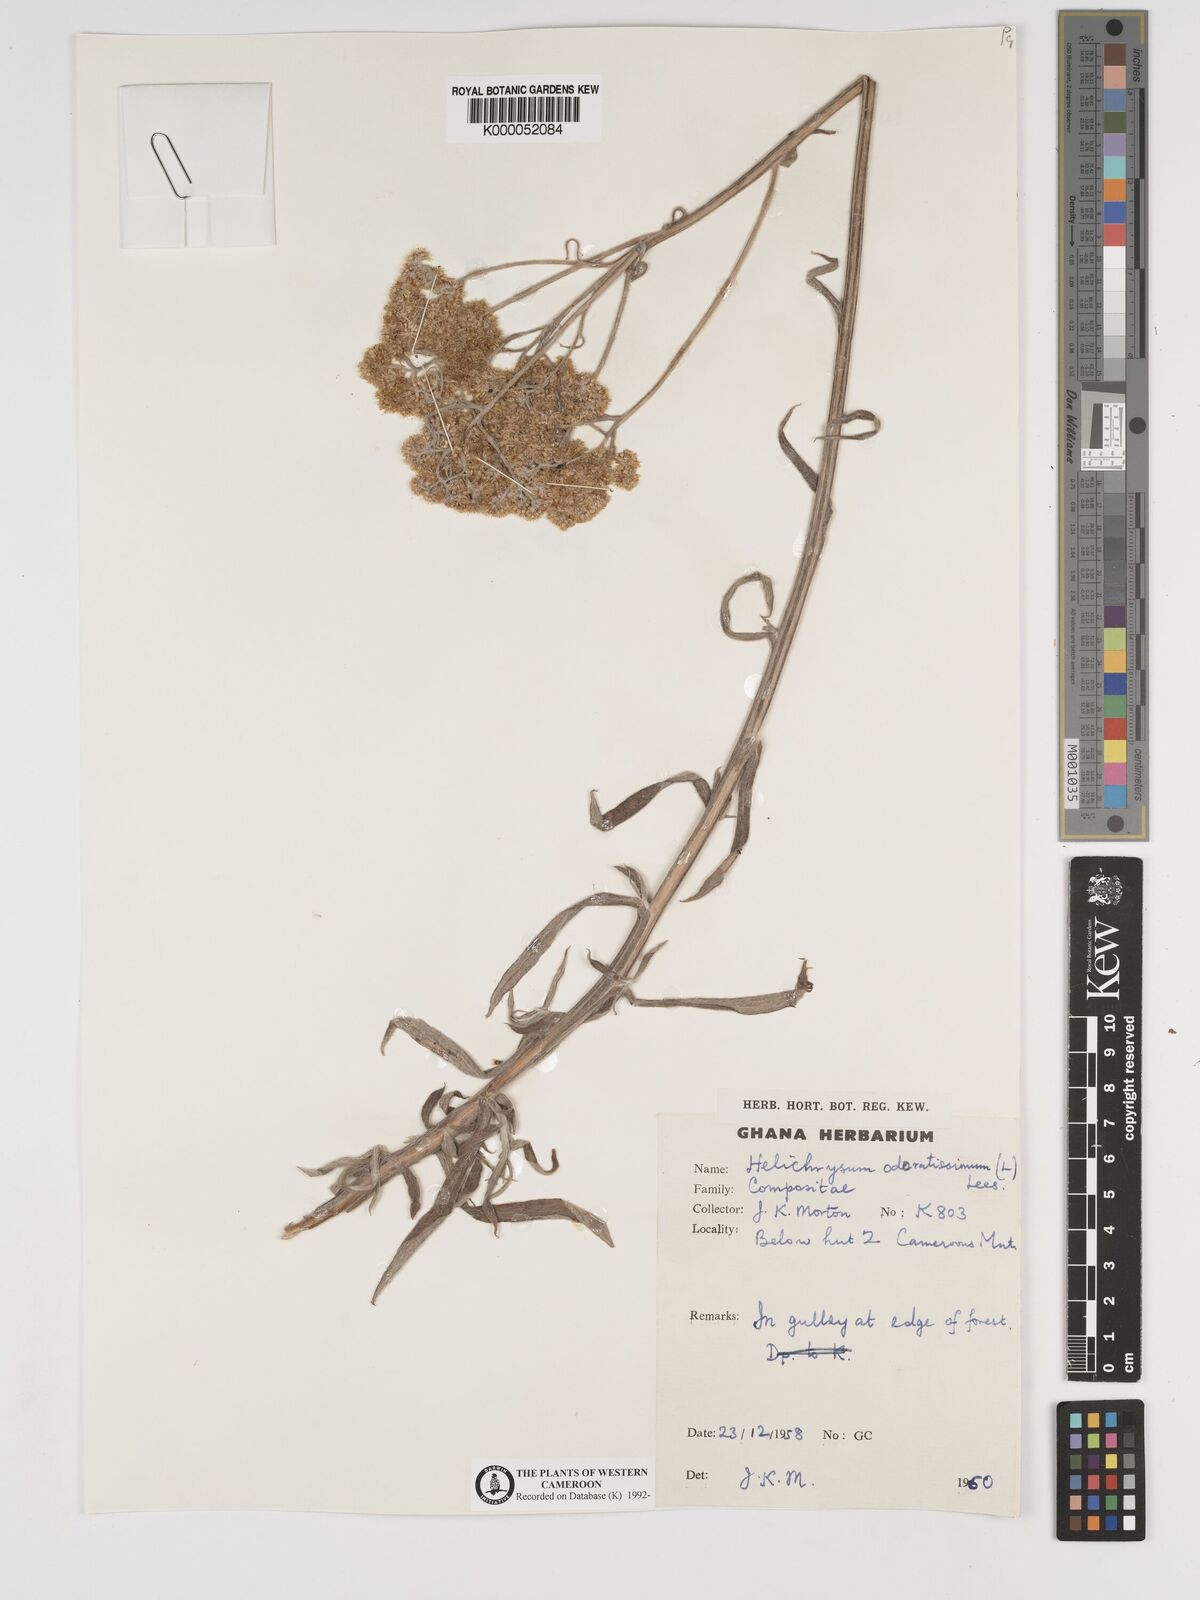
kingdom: Plantae
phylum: Tracheophyta
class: Magnoliopsida
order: Asterales
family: Asteraceae
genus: Helichrysum
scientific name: Helichrysum odoratissimum
